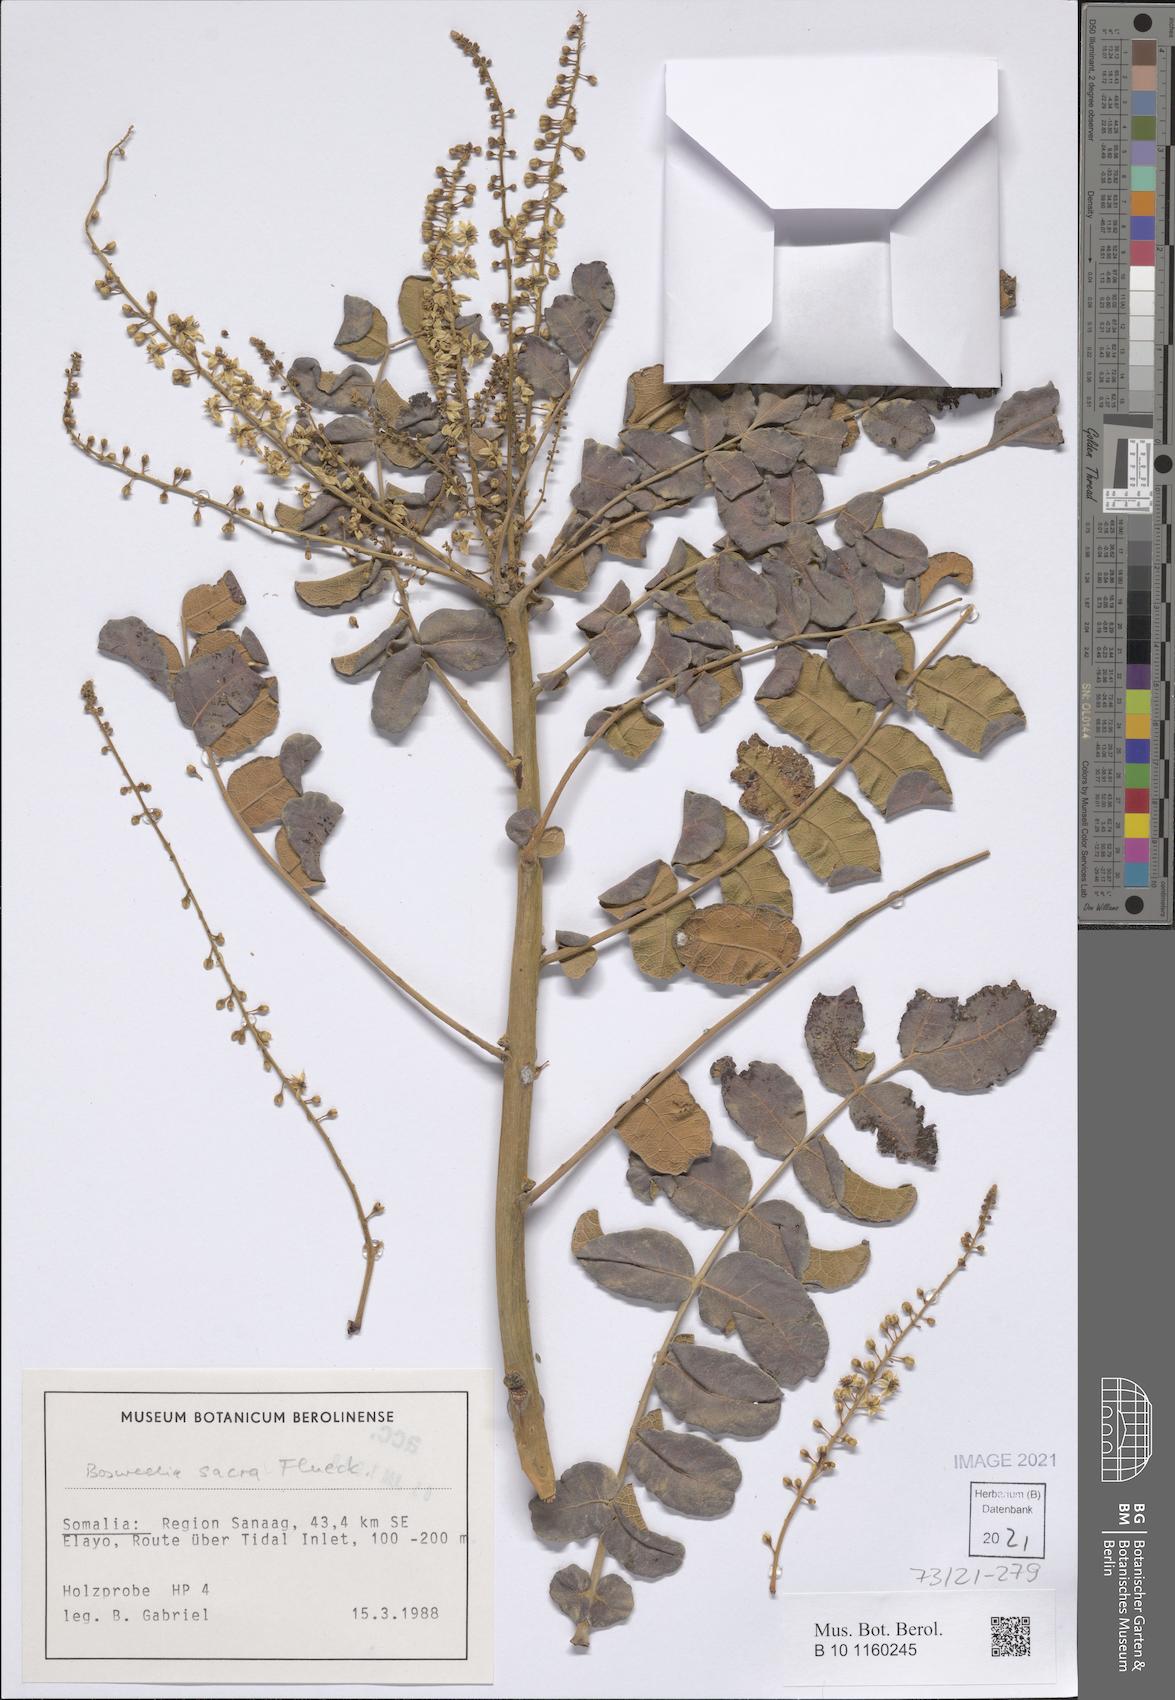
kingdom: Plantae
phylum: Tracheophyta
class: Magnoliopsida
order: Sapindales
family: Burseraceae
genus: Boswellia
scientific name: Boswellia sacra
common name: Olibanum-tree
